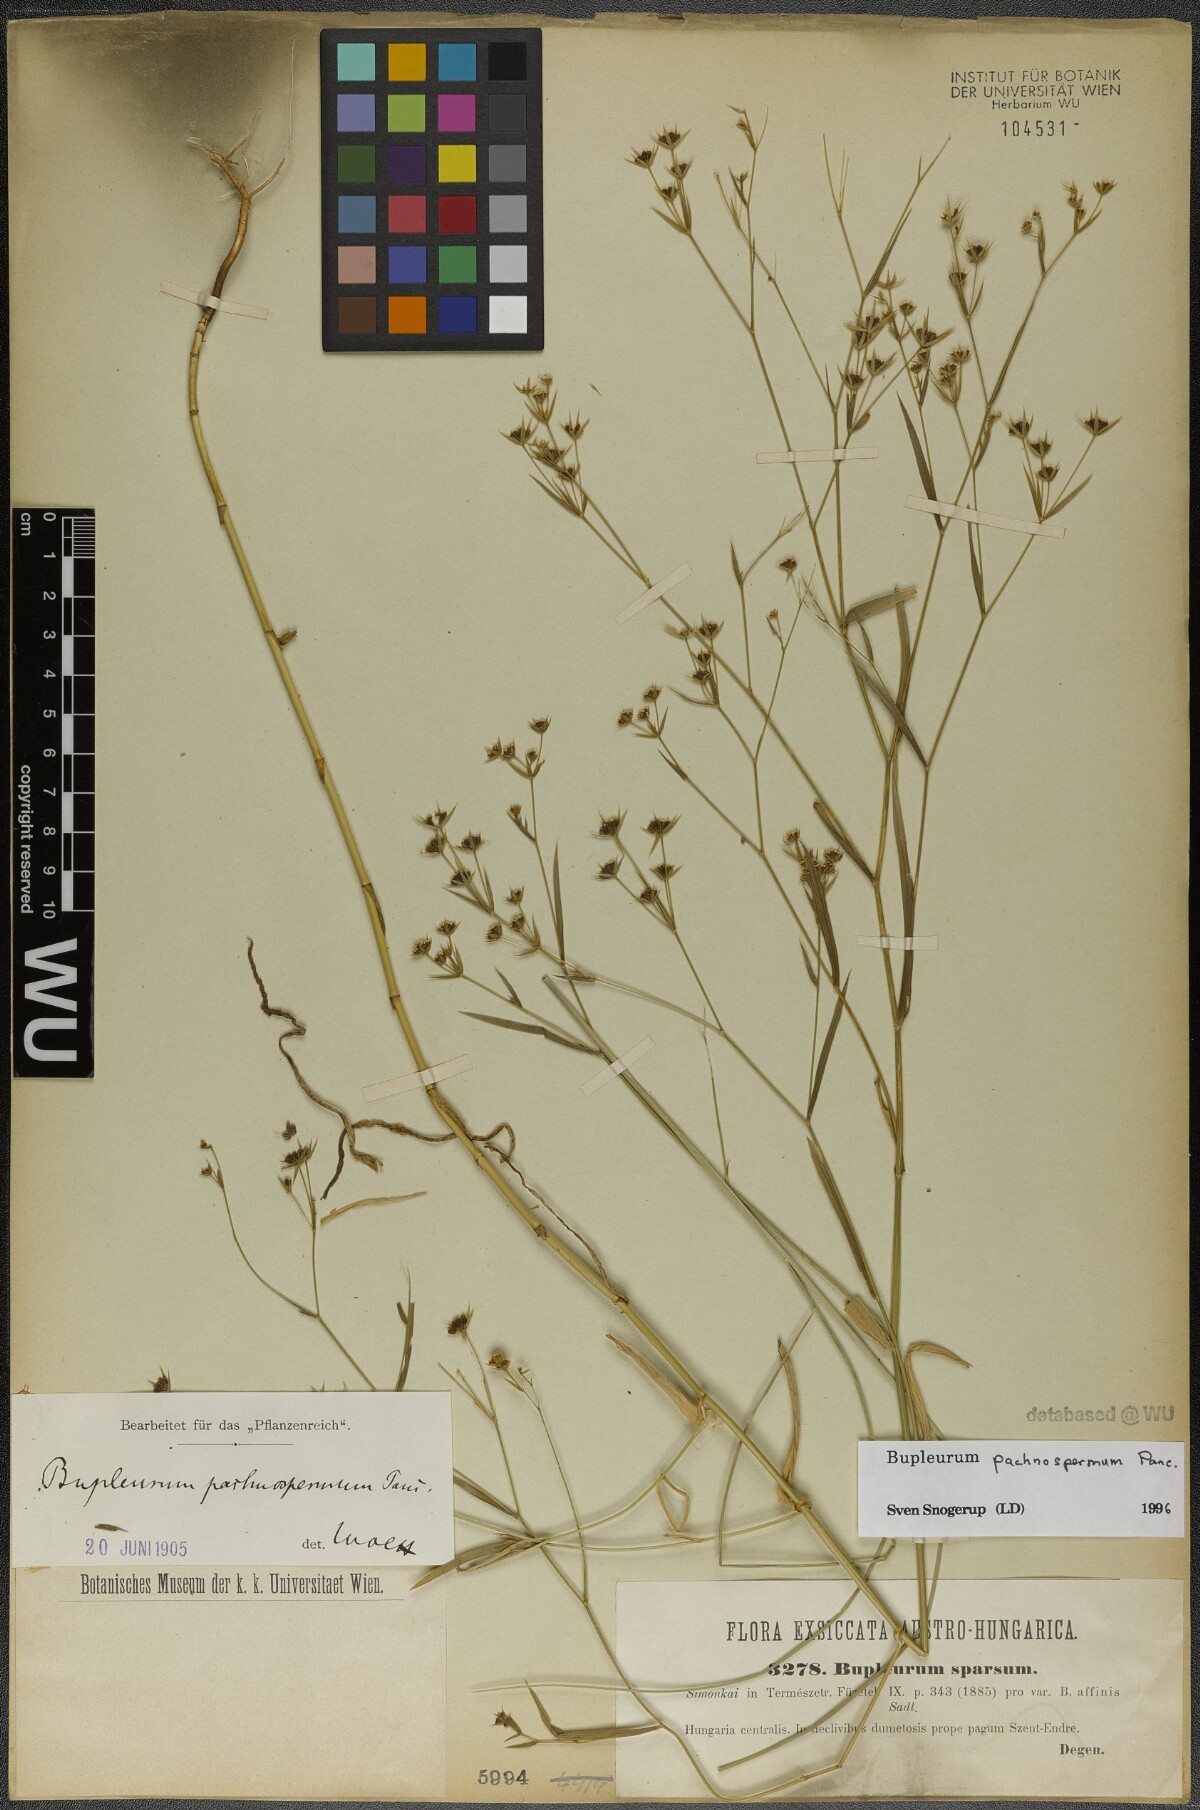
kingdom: Plantae
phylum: Tracheophyta
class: Magnoliopsida
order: Apiales
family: Apiaceae
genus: Bupleurum
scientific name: Bupleurum pachnospermum
